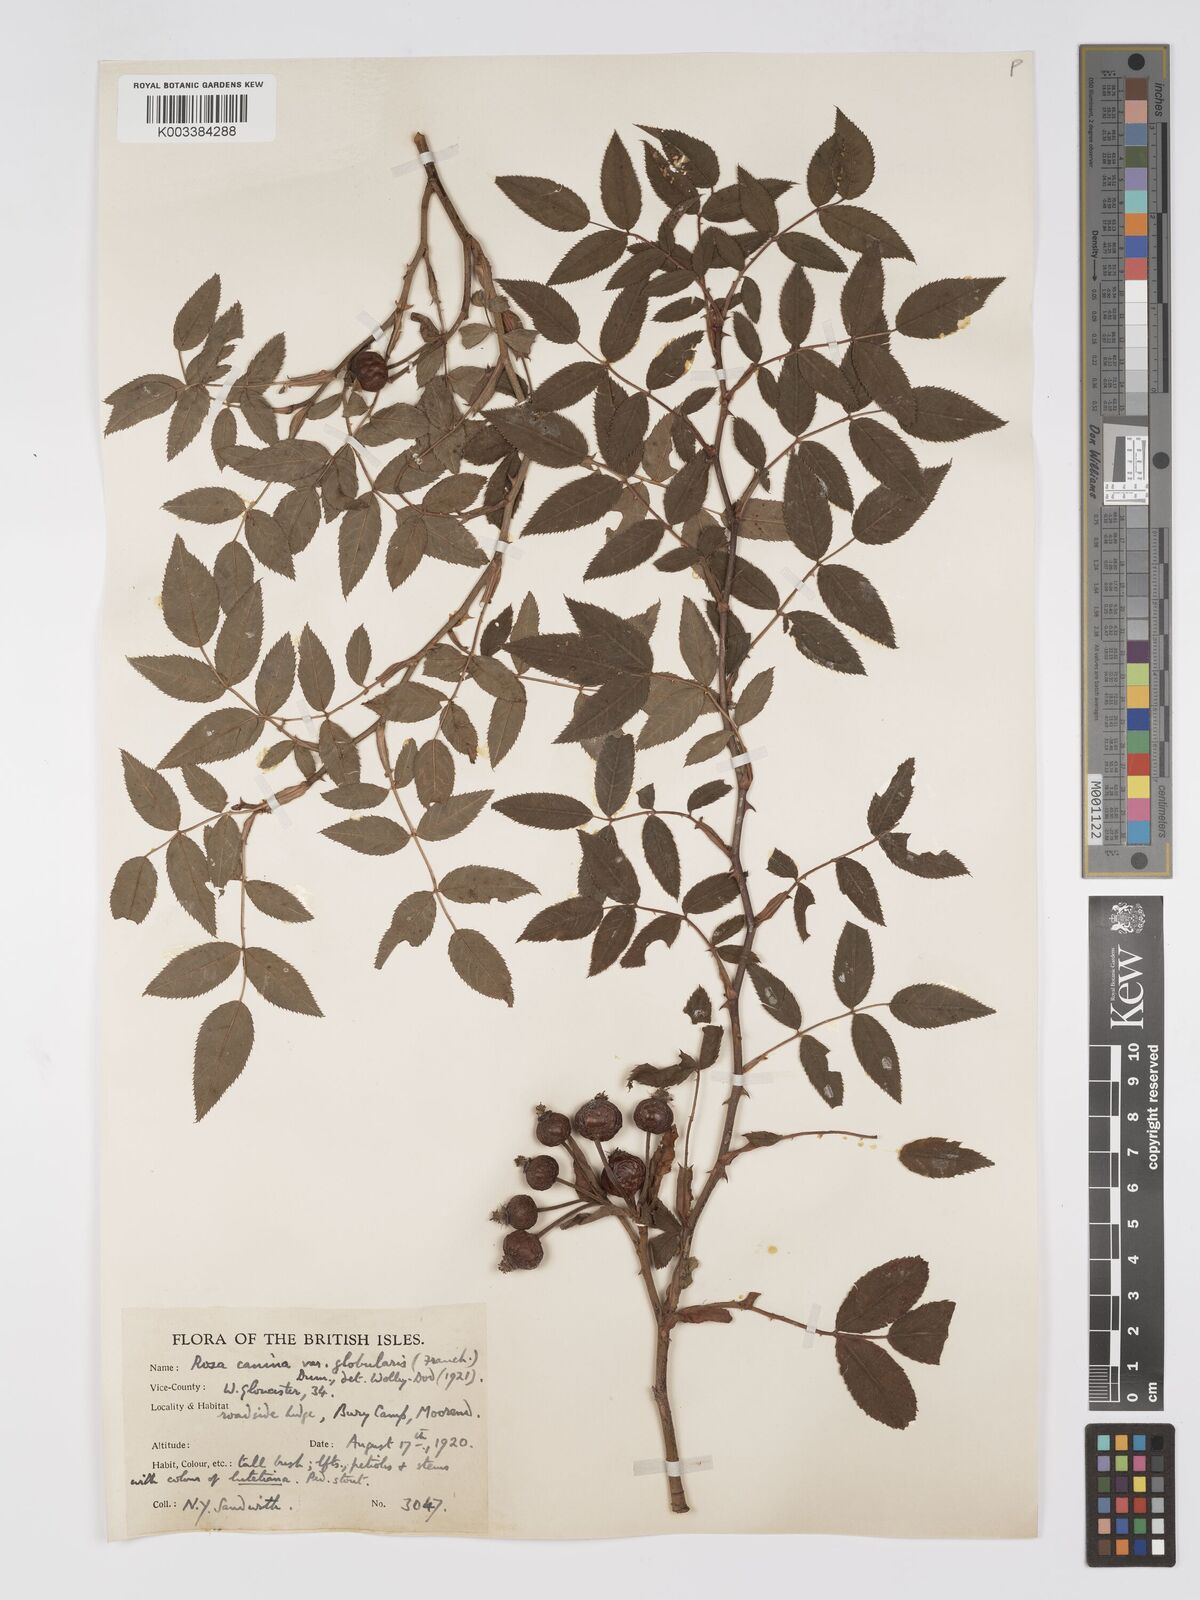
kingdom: Plantae
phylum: Tracheophyta
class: Magnoliopsida
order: Rosales
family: Rosaceae
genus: Rosa
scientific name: Rosa canina
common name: Dog rose
